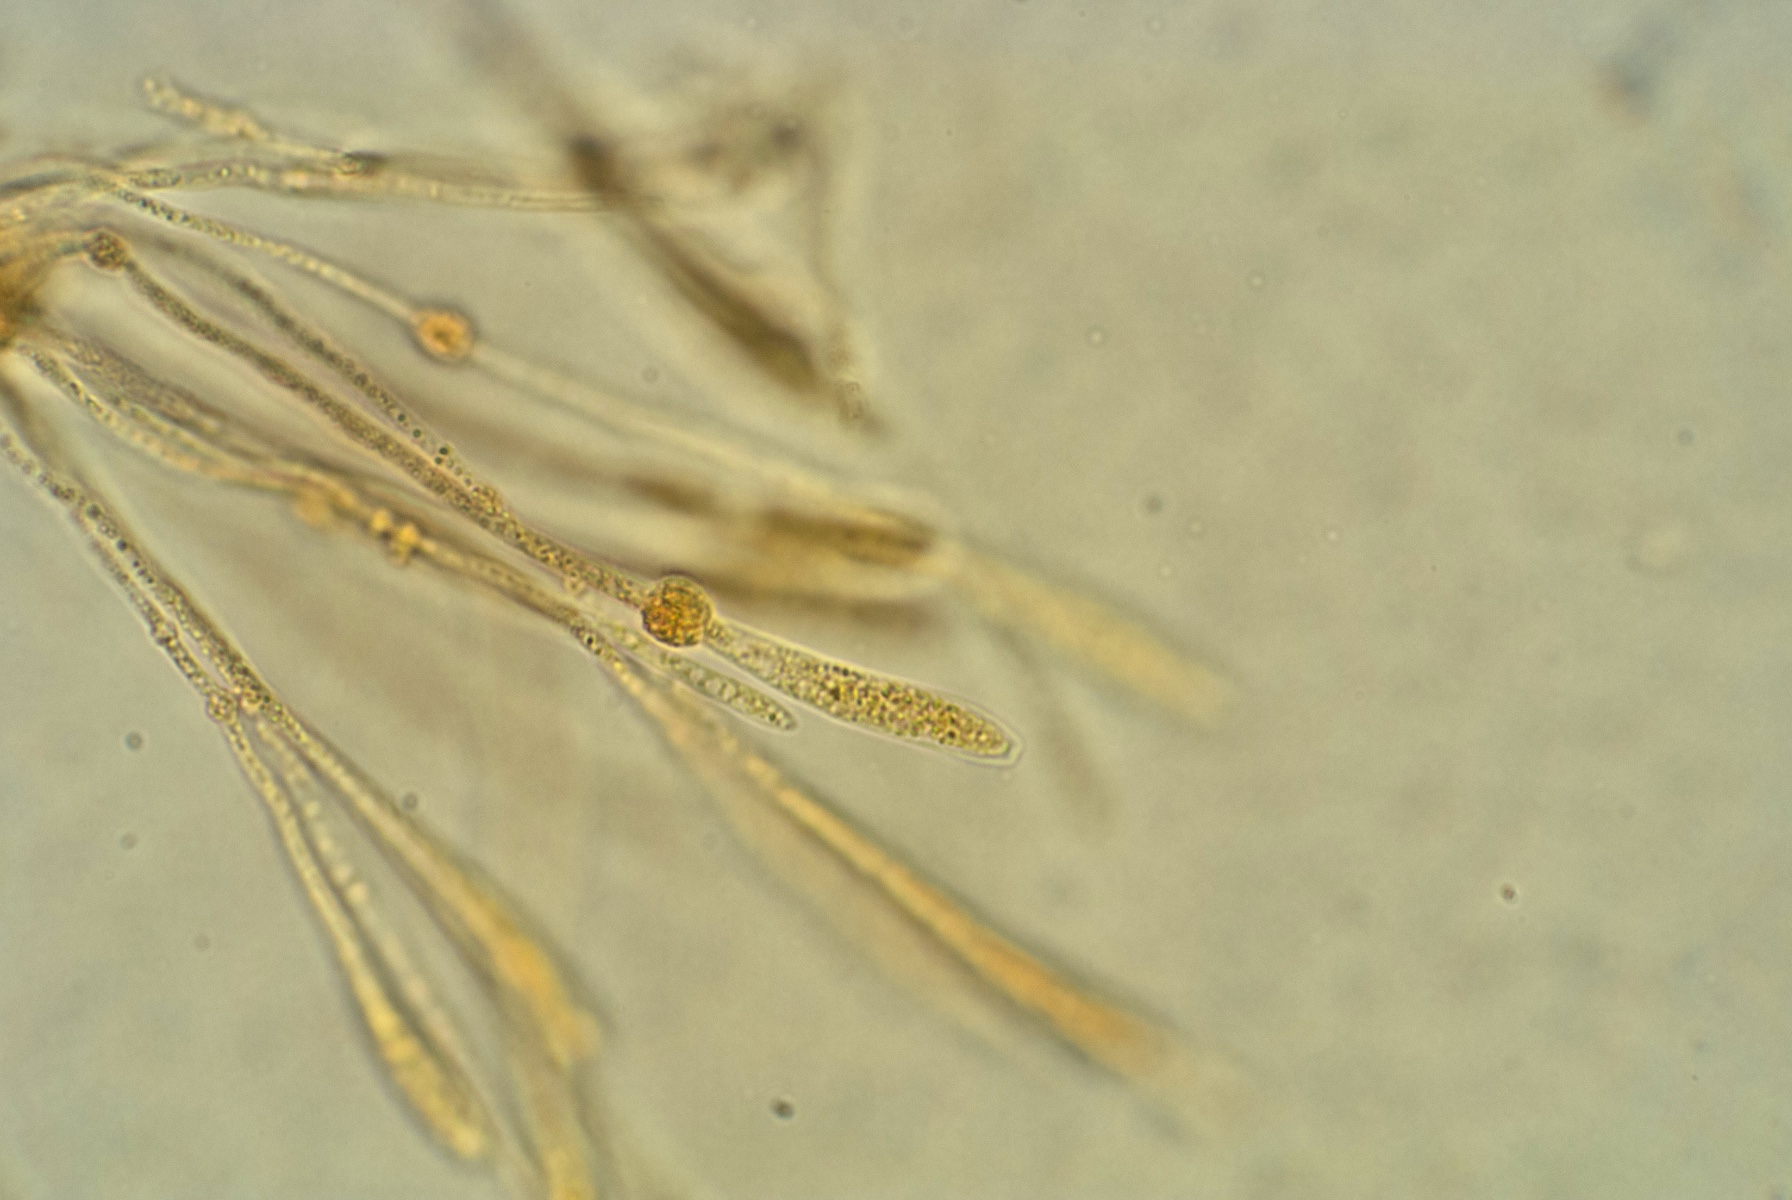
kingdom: Fungi
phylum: Ascomycota
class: Sordariomycetes
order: Xylariales
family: Diatrypaceae
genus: Eutypella
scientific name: Eutypella leprosa
